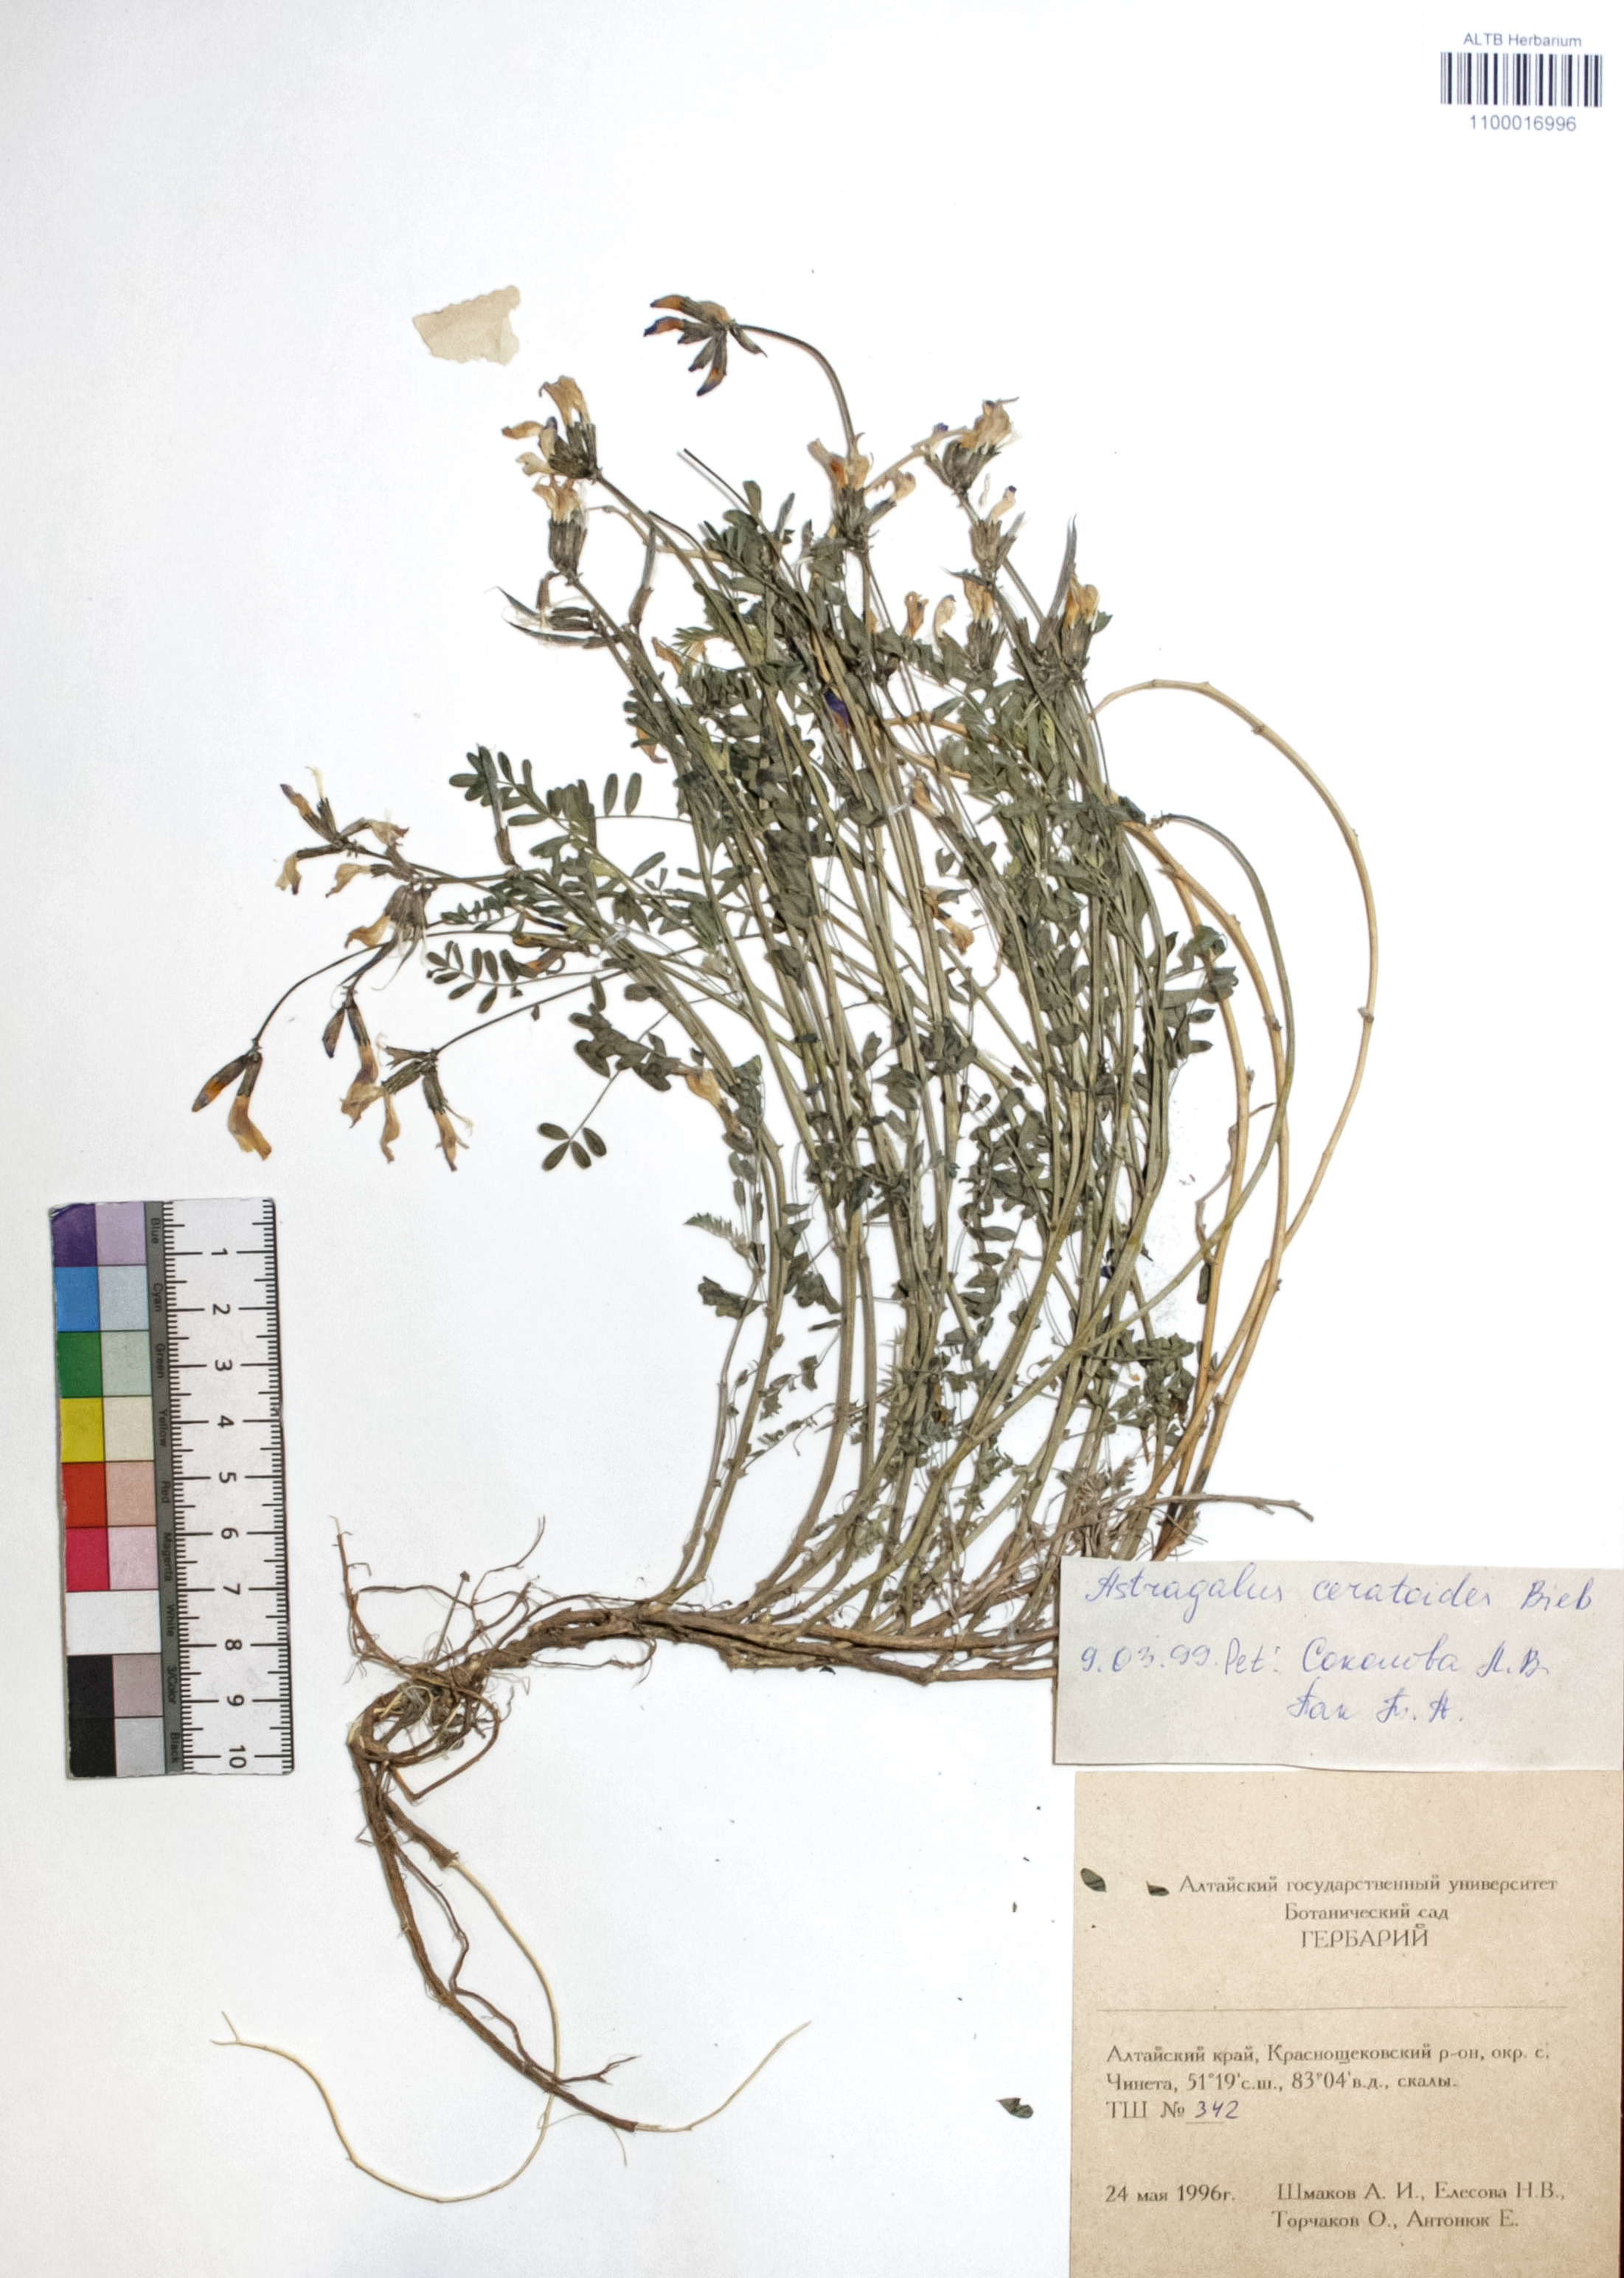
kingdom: Plantae
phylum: Tracheophyta
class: Magnoliopsida
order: Fabales
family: Fabaceae
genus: Astragalus
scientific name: Astragalus ceratoides
